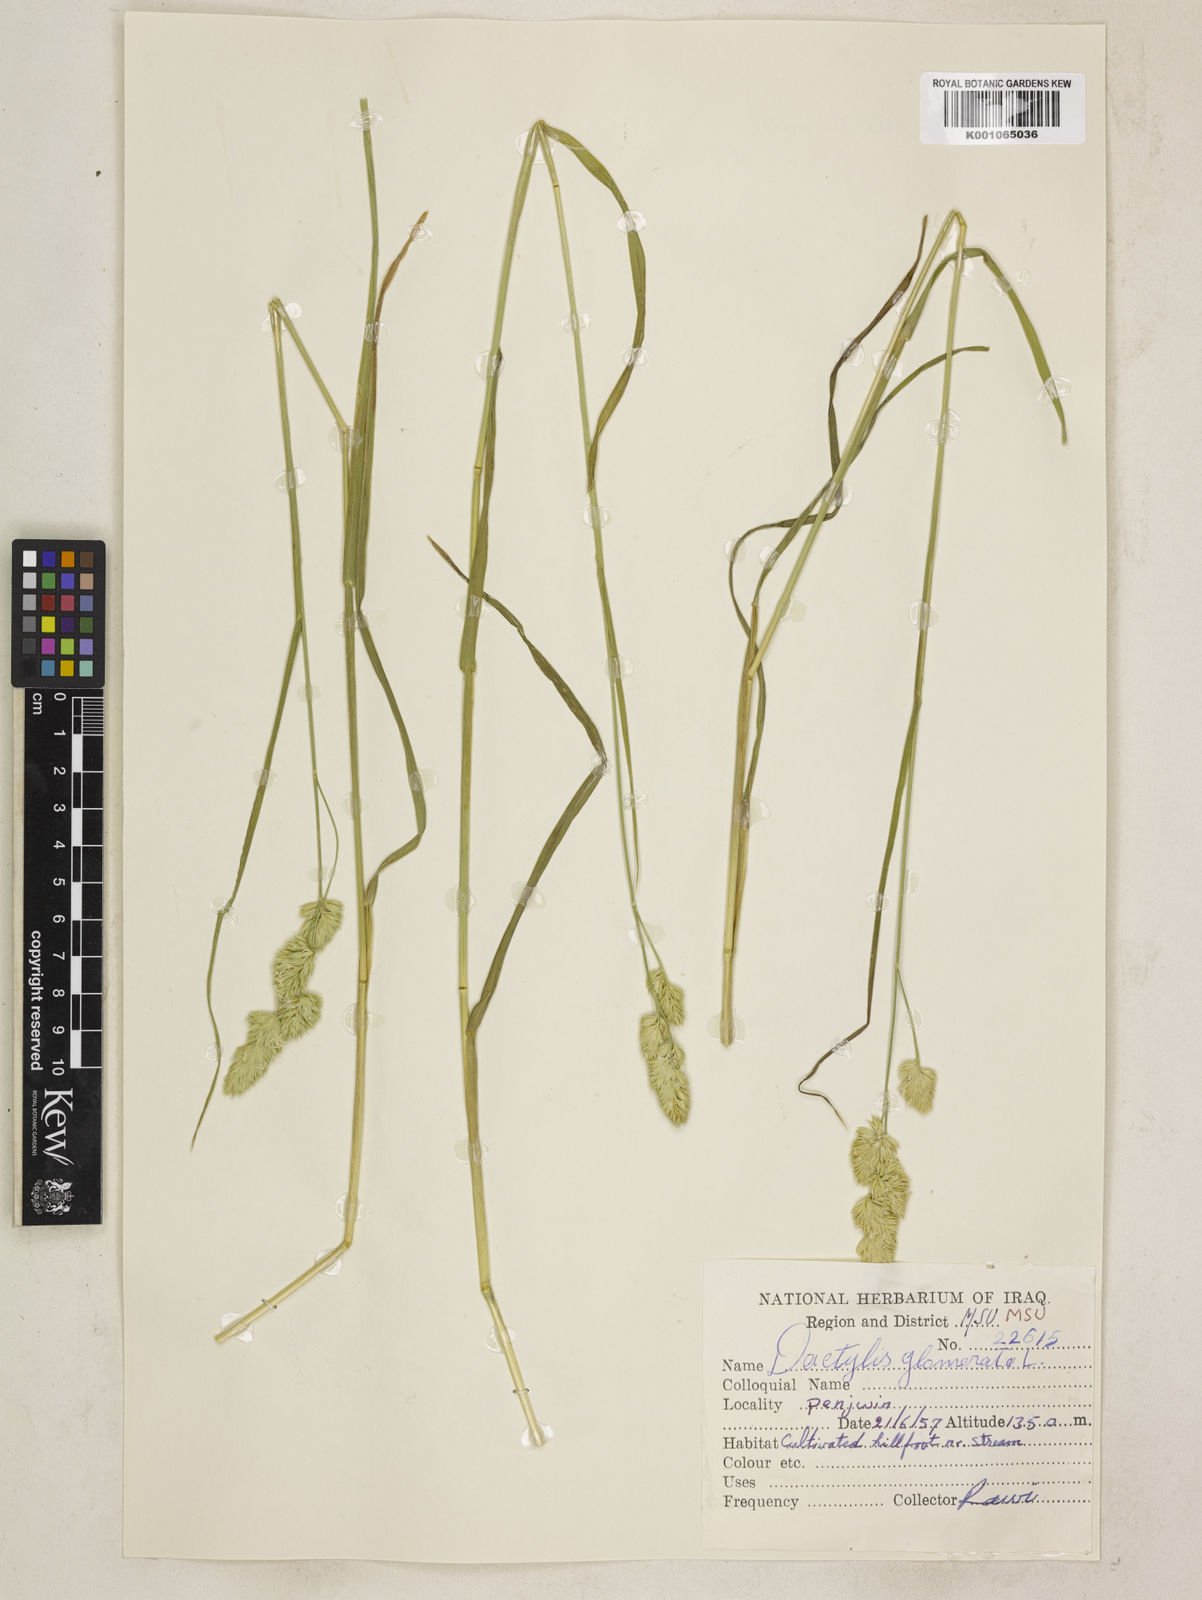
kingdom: Plantae
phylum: Tracheophyta
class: Liliopsida
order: Poales
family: Poaceae
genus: Dactylis
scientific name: Dactylis glomerata
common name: Orchardgrass
